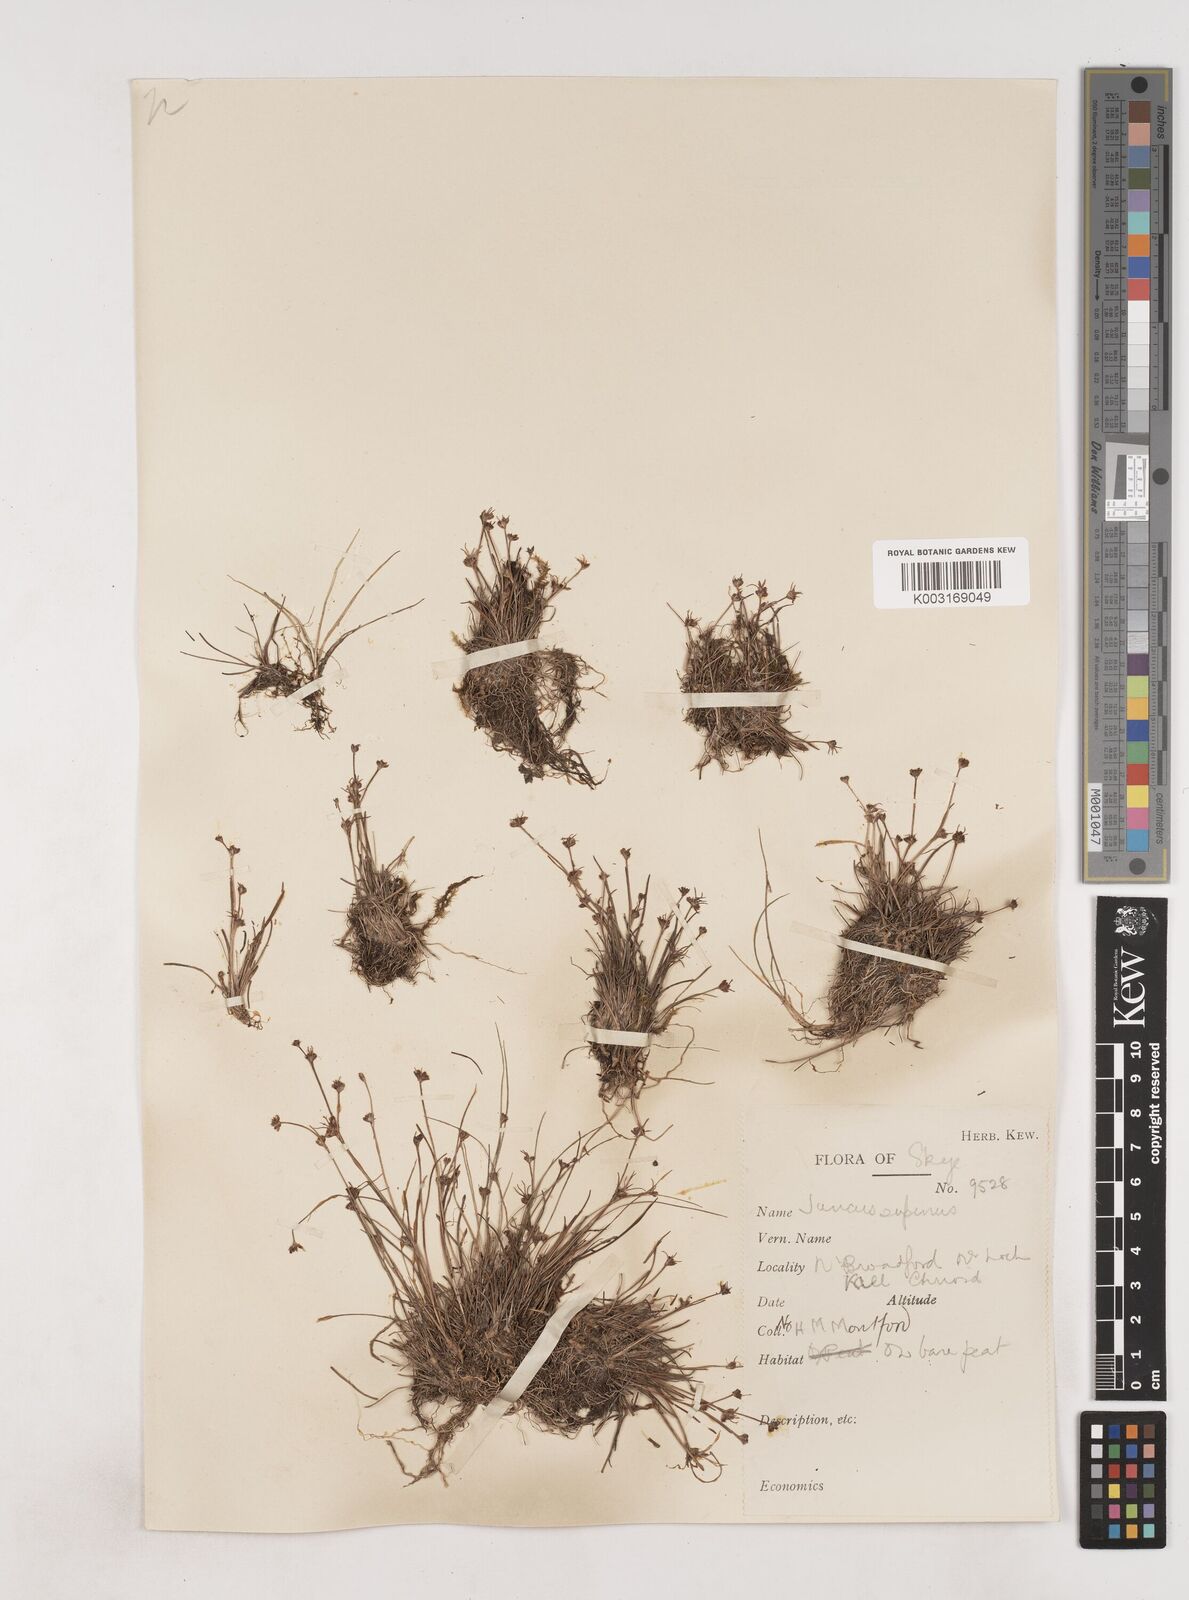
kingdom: Plantae
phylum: Tracheophyta
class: Liliopsida
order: Poales
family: Juncaceae
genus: Juncus
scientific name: Juncus bulbosus
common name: Bulbous rush
